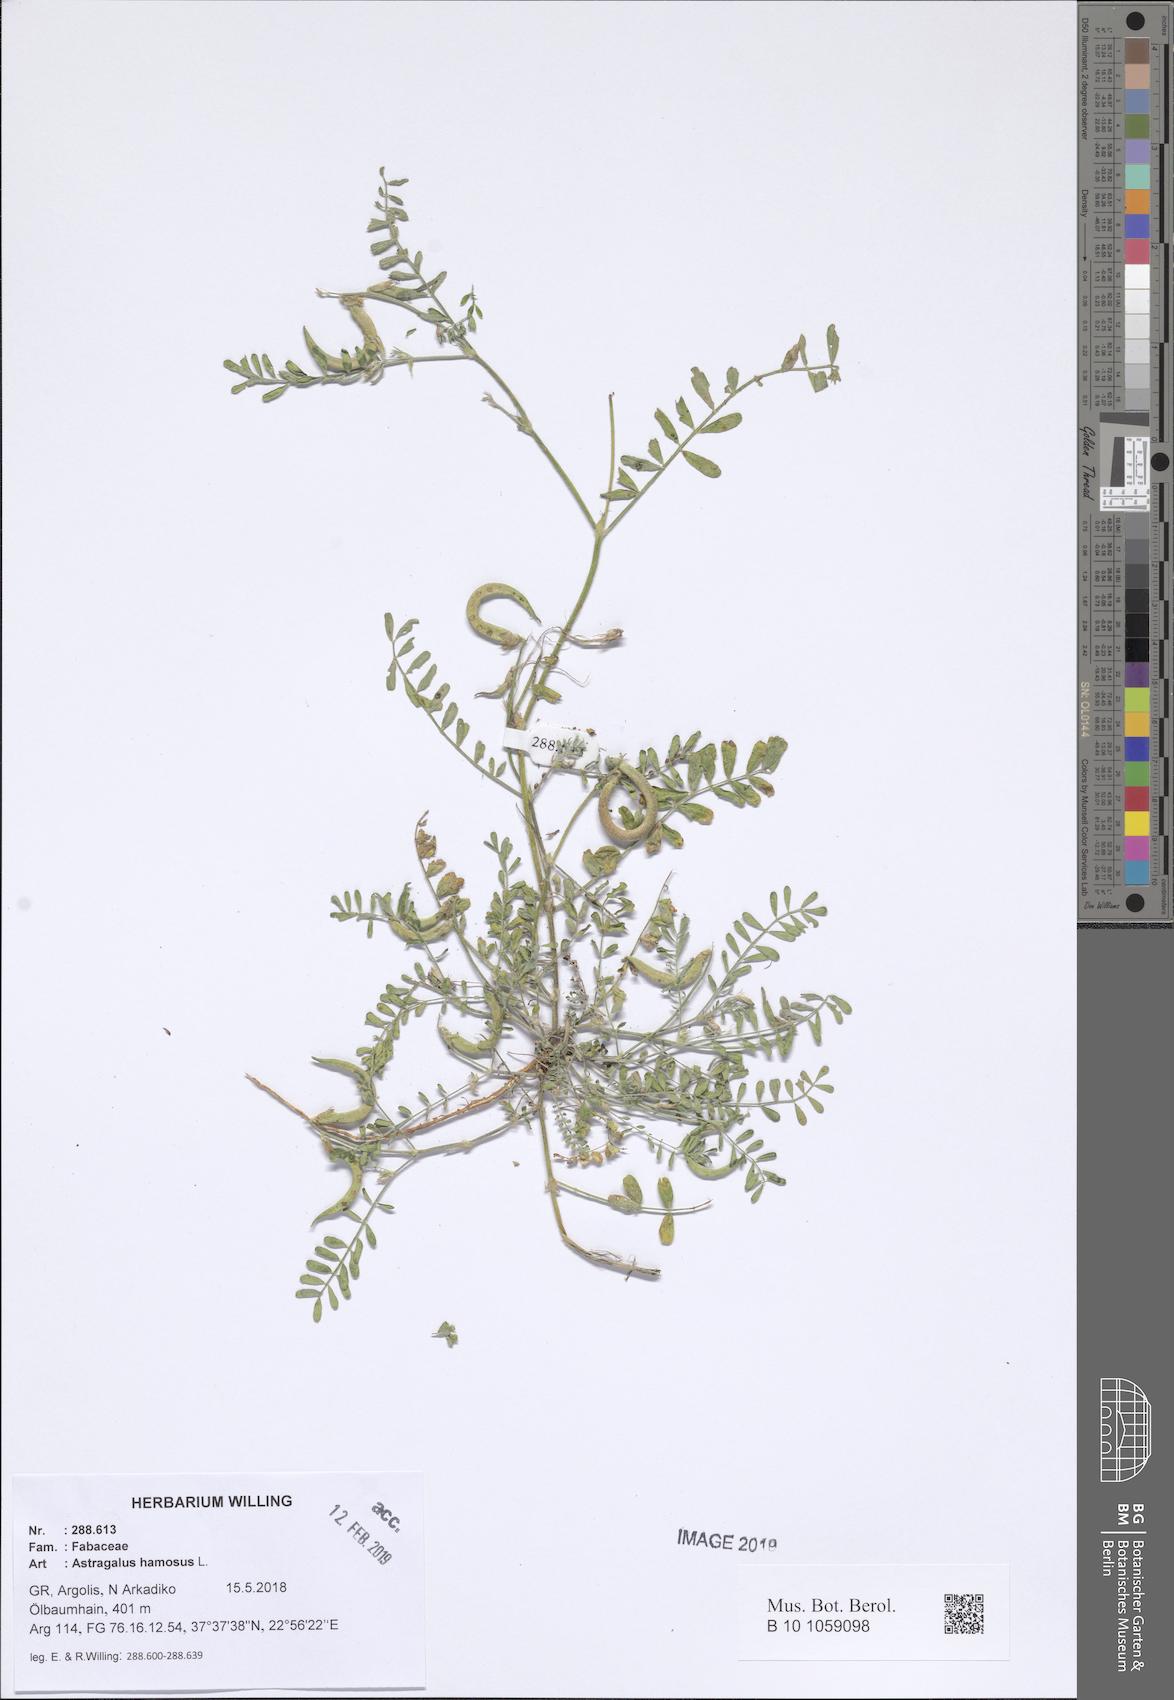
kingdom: Plantae
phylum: Tracheophyta
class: Magnoliopsida
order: Fabales
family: Fabaceae
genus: Astragalus
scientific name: Astragalus hamosus
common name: European milkvetch
